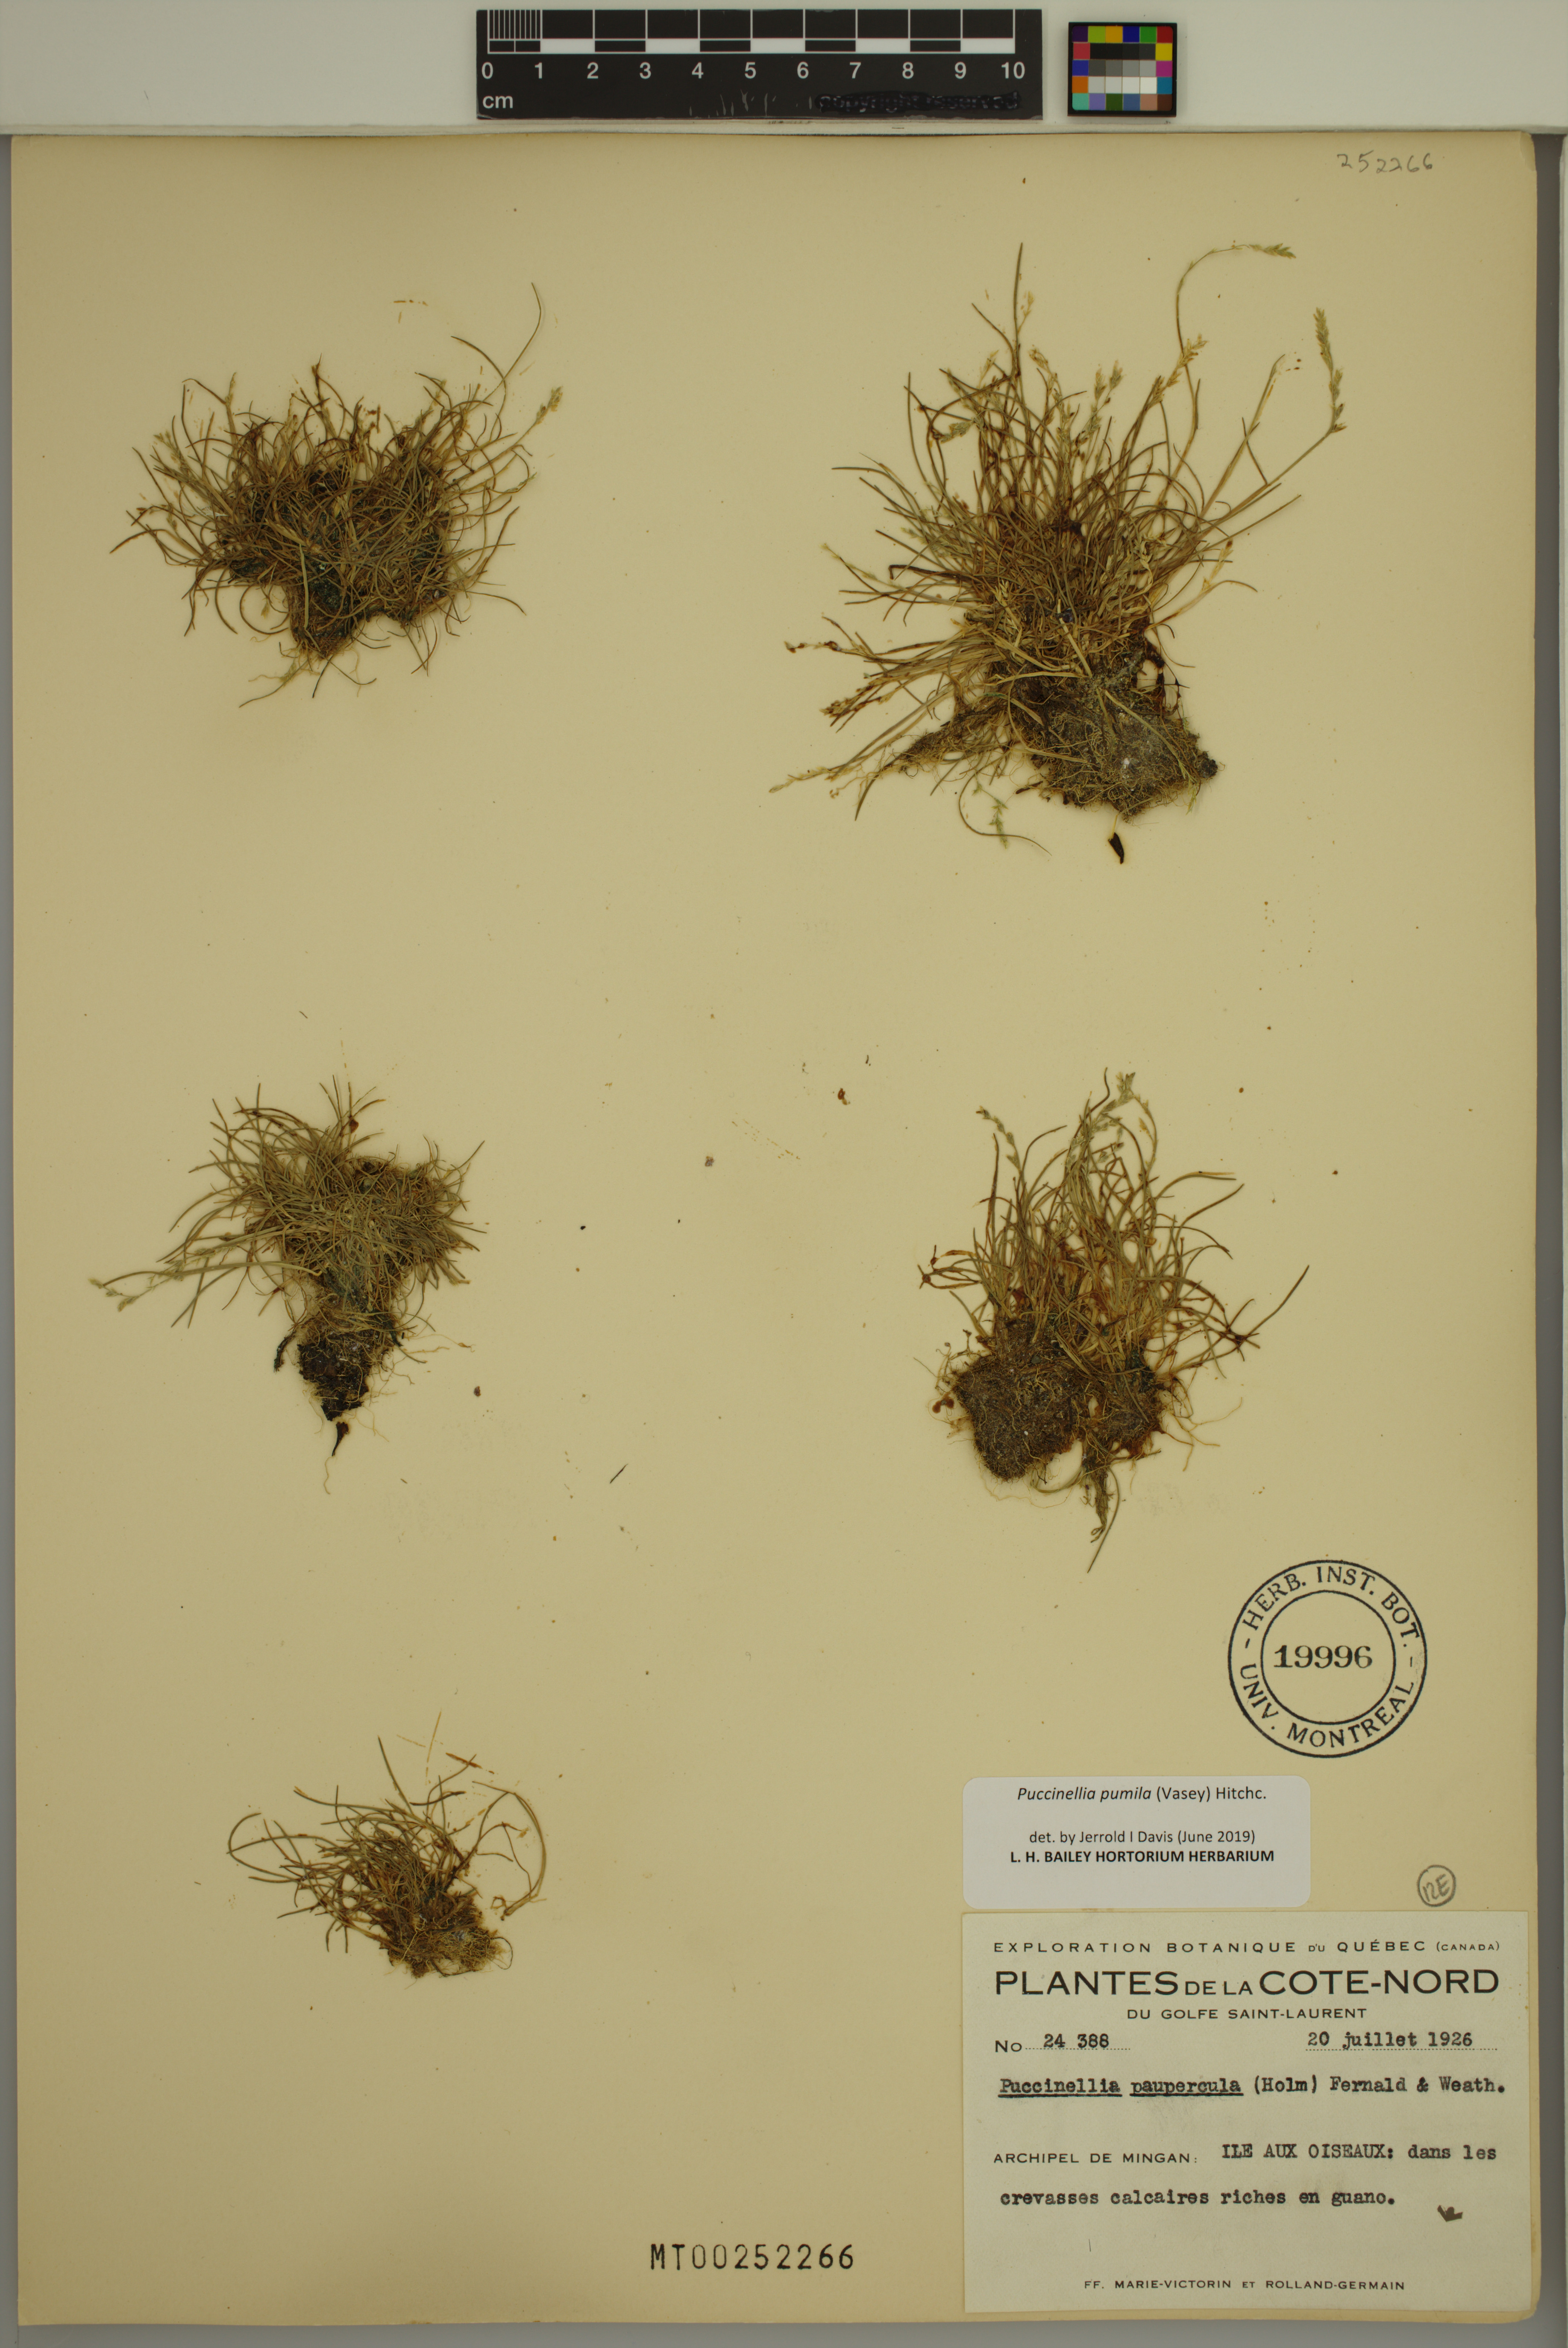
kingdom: Plantae
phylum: Tracheophyta
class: Liliopsida
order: Poales
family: Poaceae
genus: Puccinellia
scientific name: Puccinellia pumila
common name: Dwarf alkaligrass
